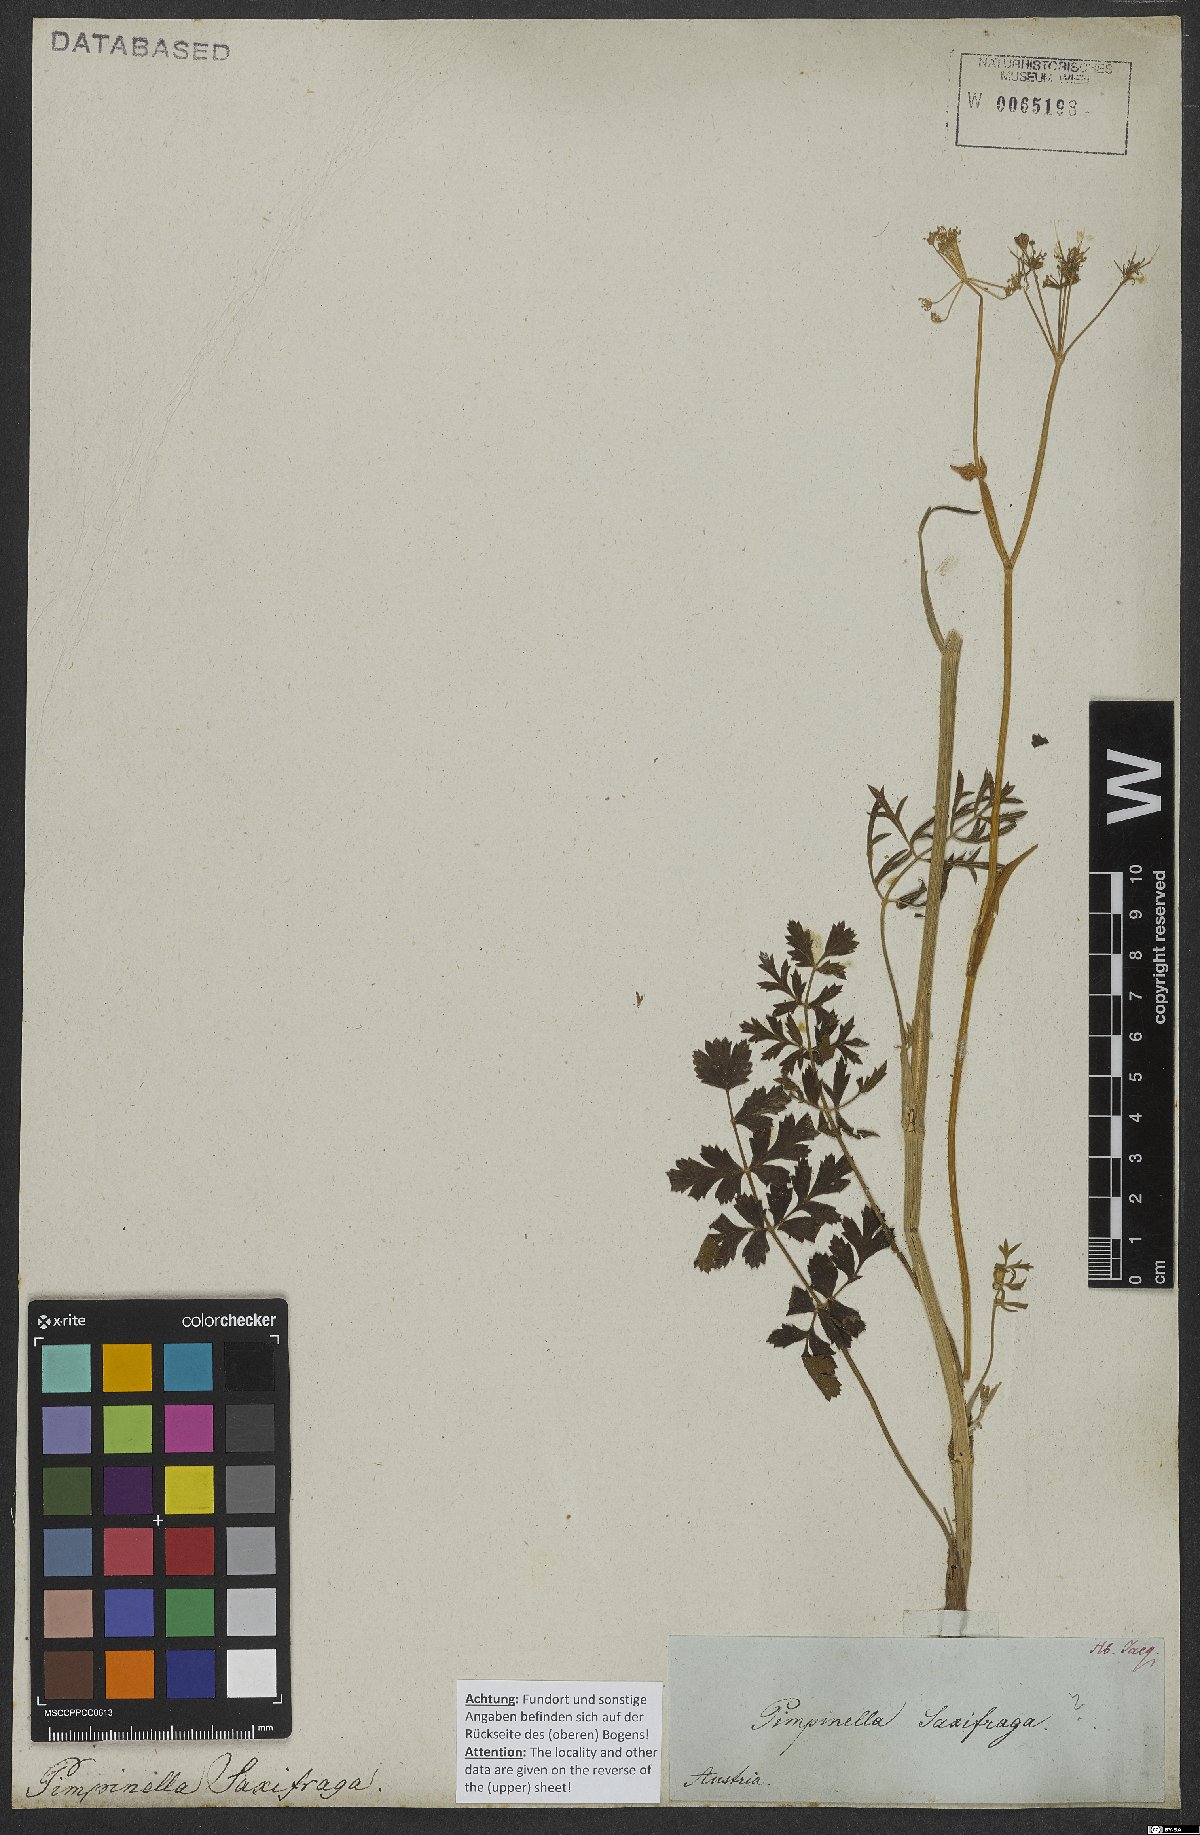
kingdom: Plantae
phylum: Tracheophyta
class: Magnoliopsida
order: Apiales
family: Apiaceae
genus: Pimpinella
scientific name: Pimpinella saxifraga
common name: Burnet-saxifrage
